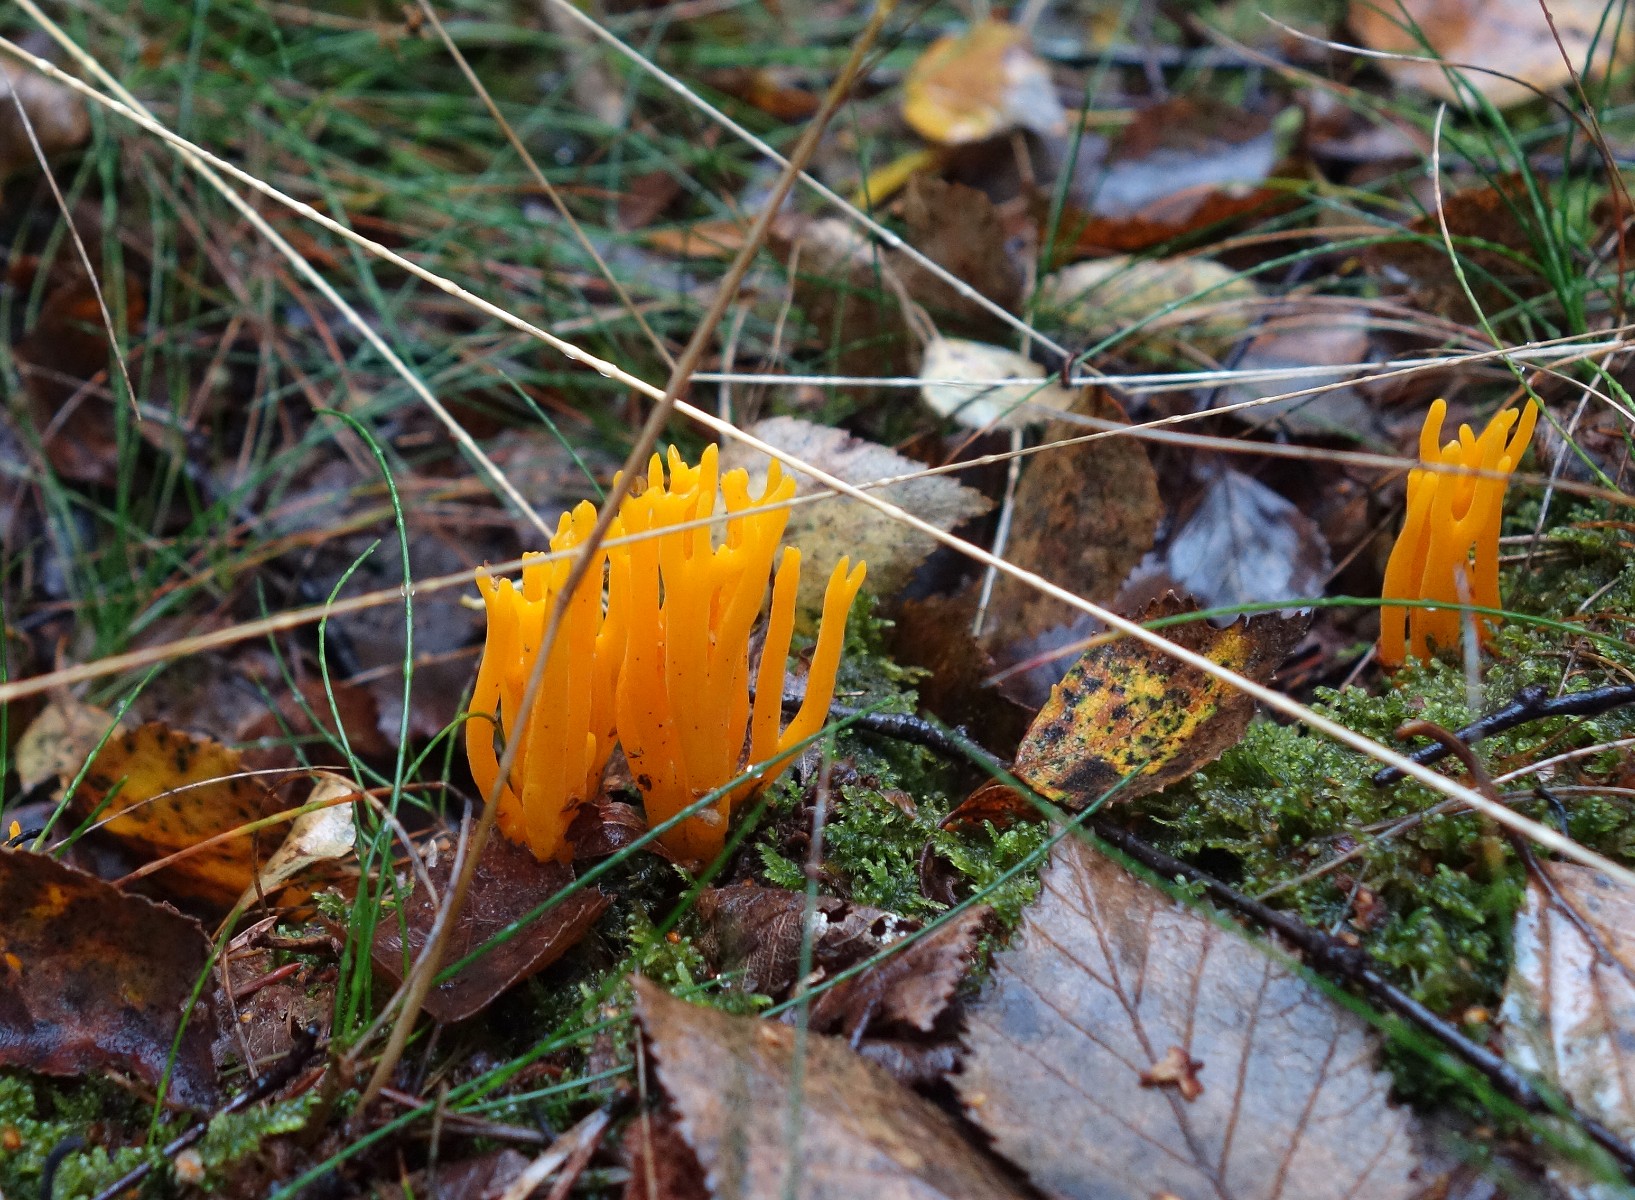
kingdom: Fungi
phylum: Basidiomycota
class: Dacrymycetes
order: Dacrymycetales
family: Dacrymycetaceae
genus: Calocera
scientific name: Calocera viscosa
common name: almindelig guldgaffel
